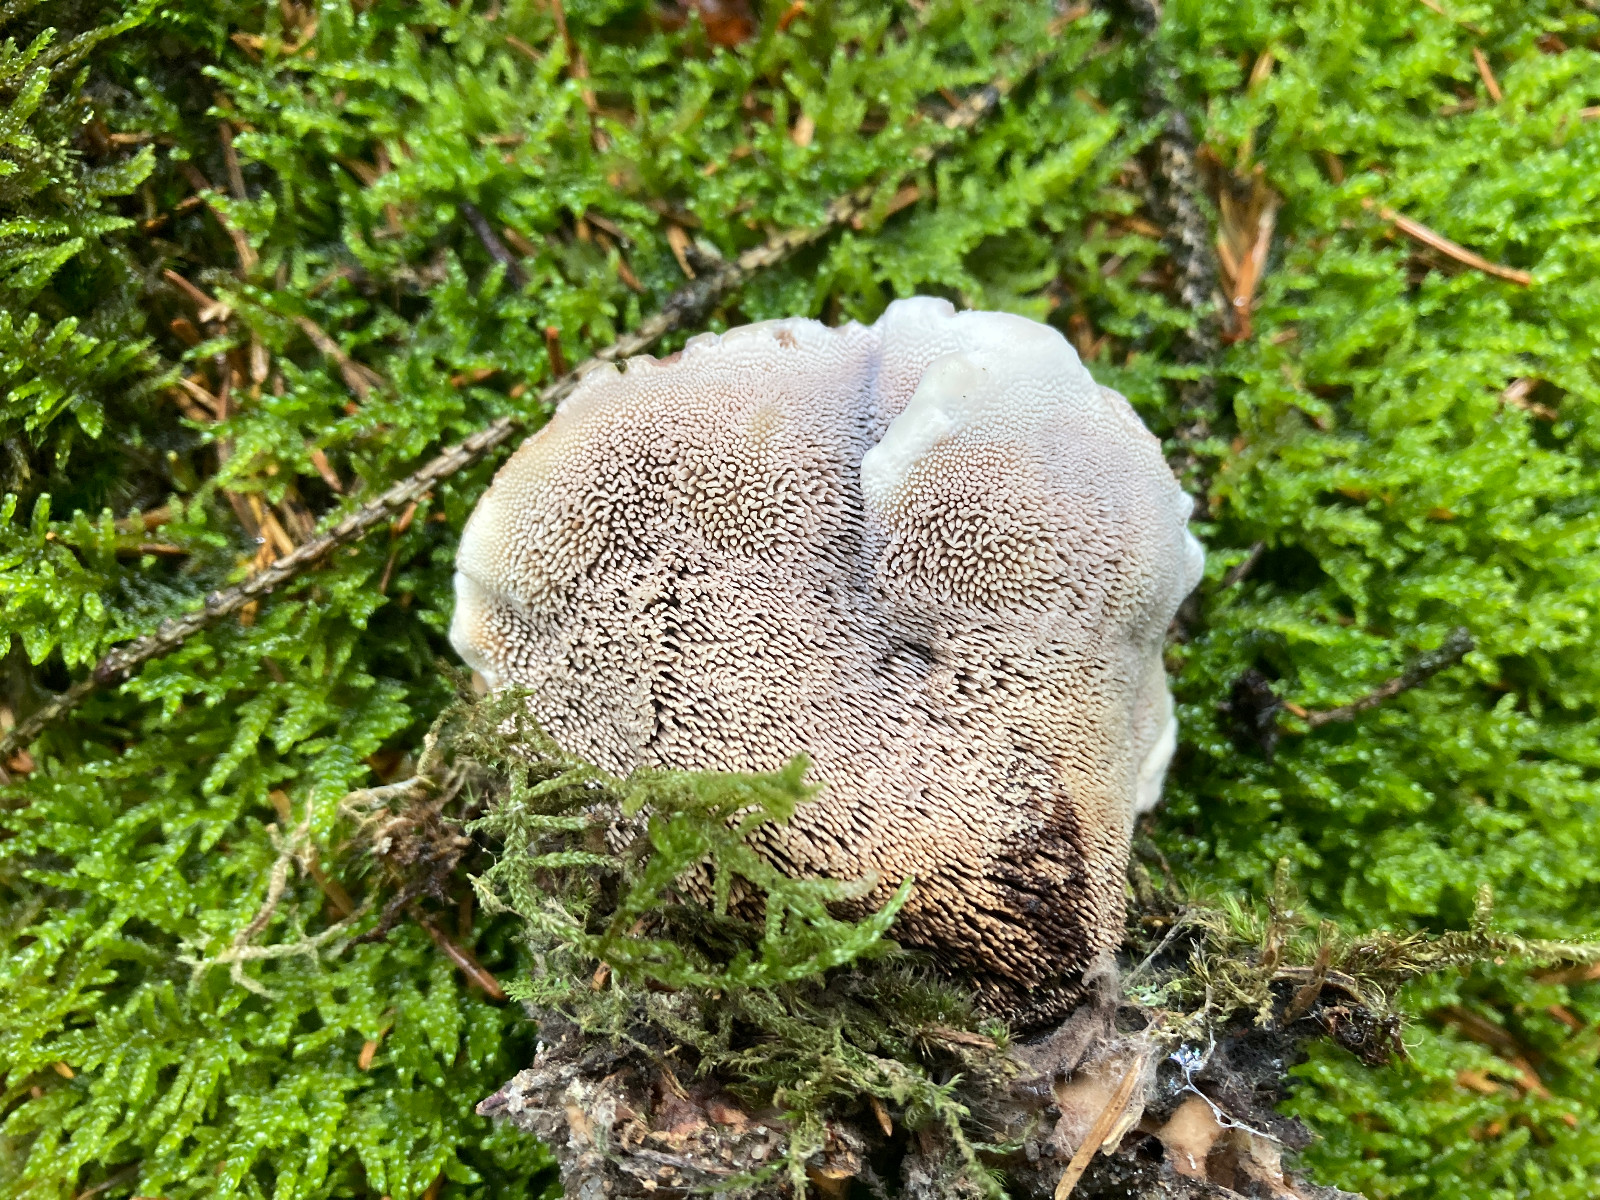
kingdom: Fungi
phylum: Basidiomycota
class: Agaricomycetes
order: Polyporales
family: Polyporaceae
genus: Cyanosporus
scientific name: Cyanosporus caesius
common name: blålig kødporesvamp
